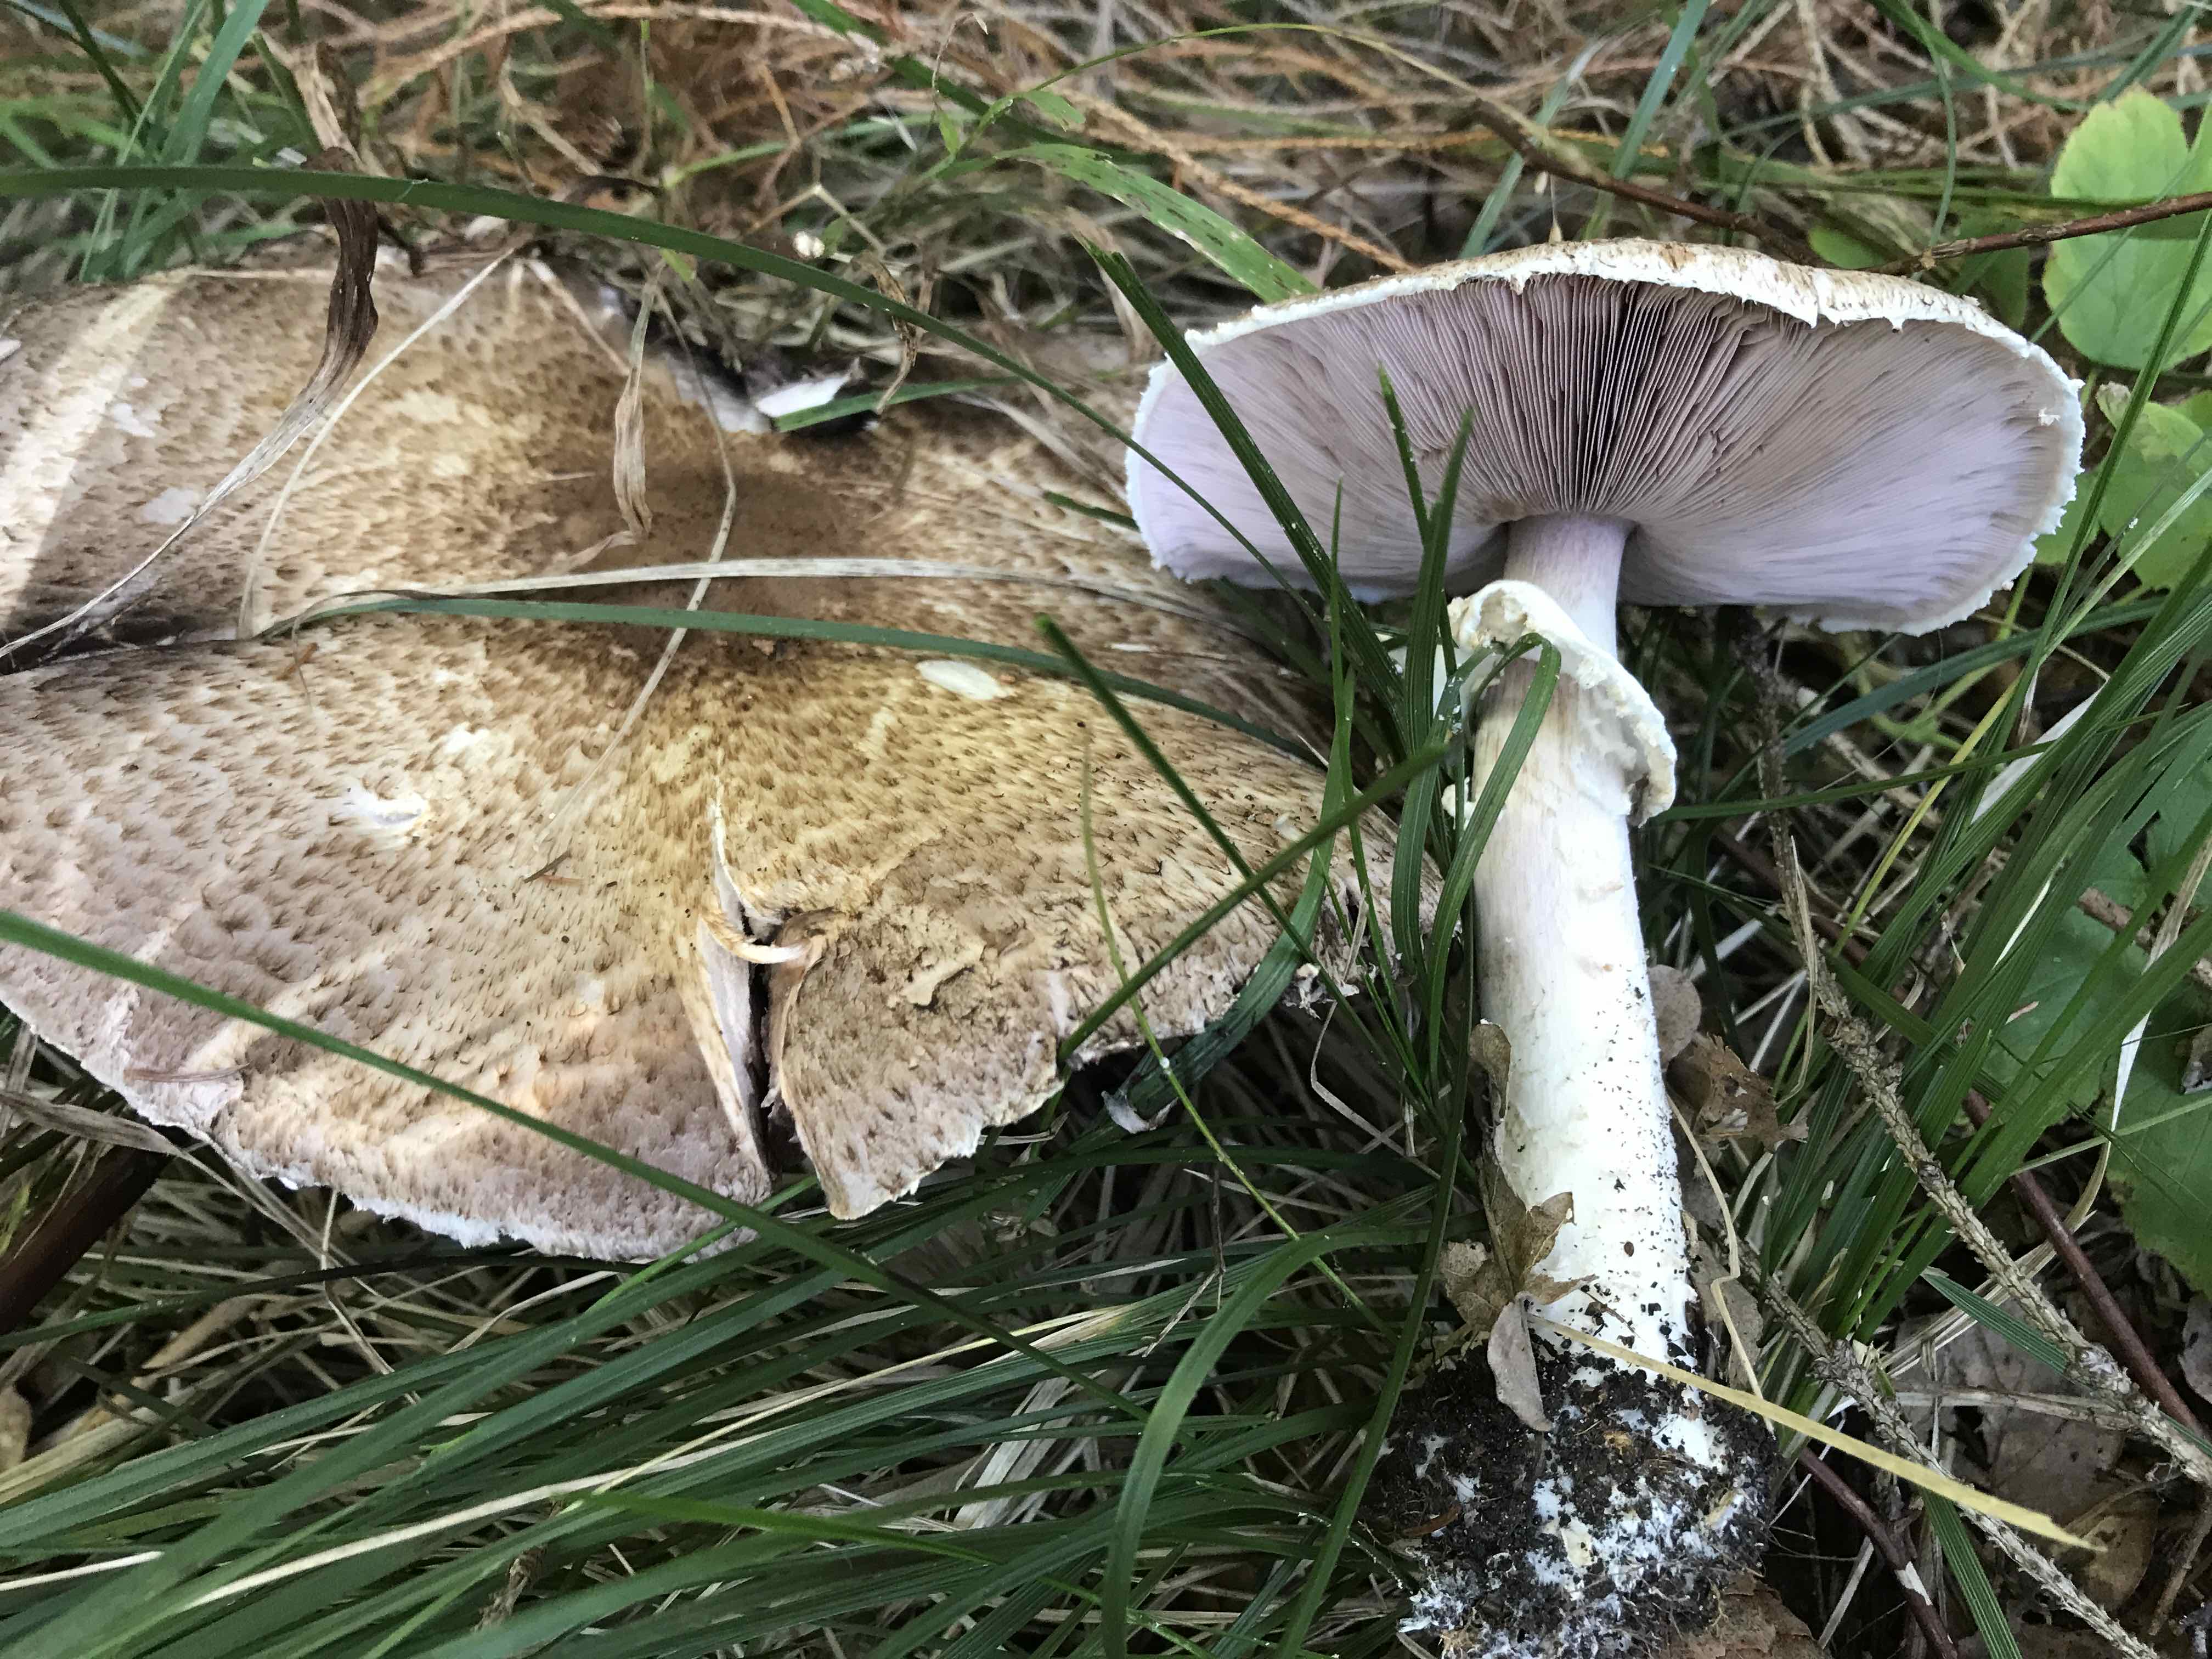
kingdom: Fungi
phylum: Basidiomycota
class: Agaricomycetes
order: Agaricales
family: Agaricaceae
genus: Agaricus
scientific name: Agaricus augustus
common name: prægtig champignon
